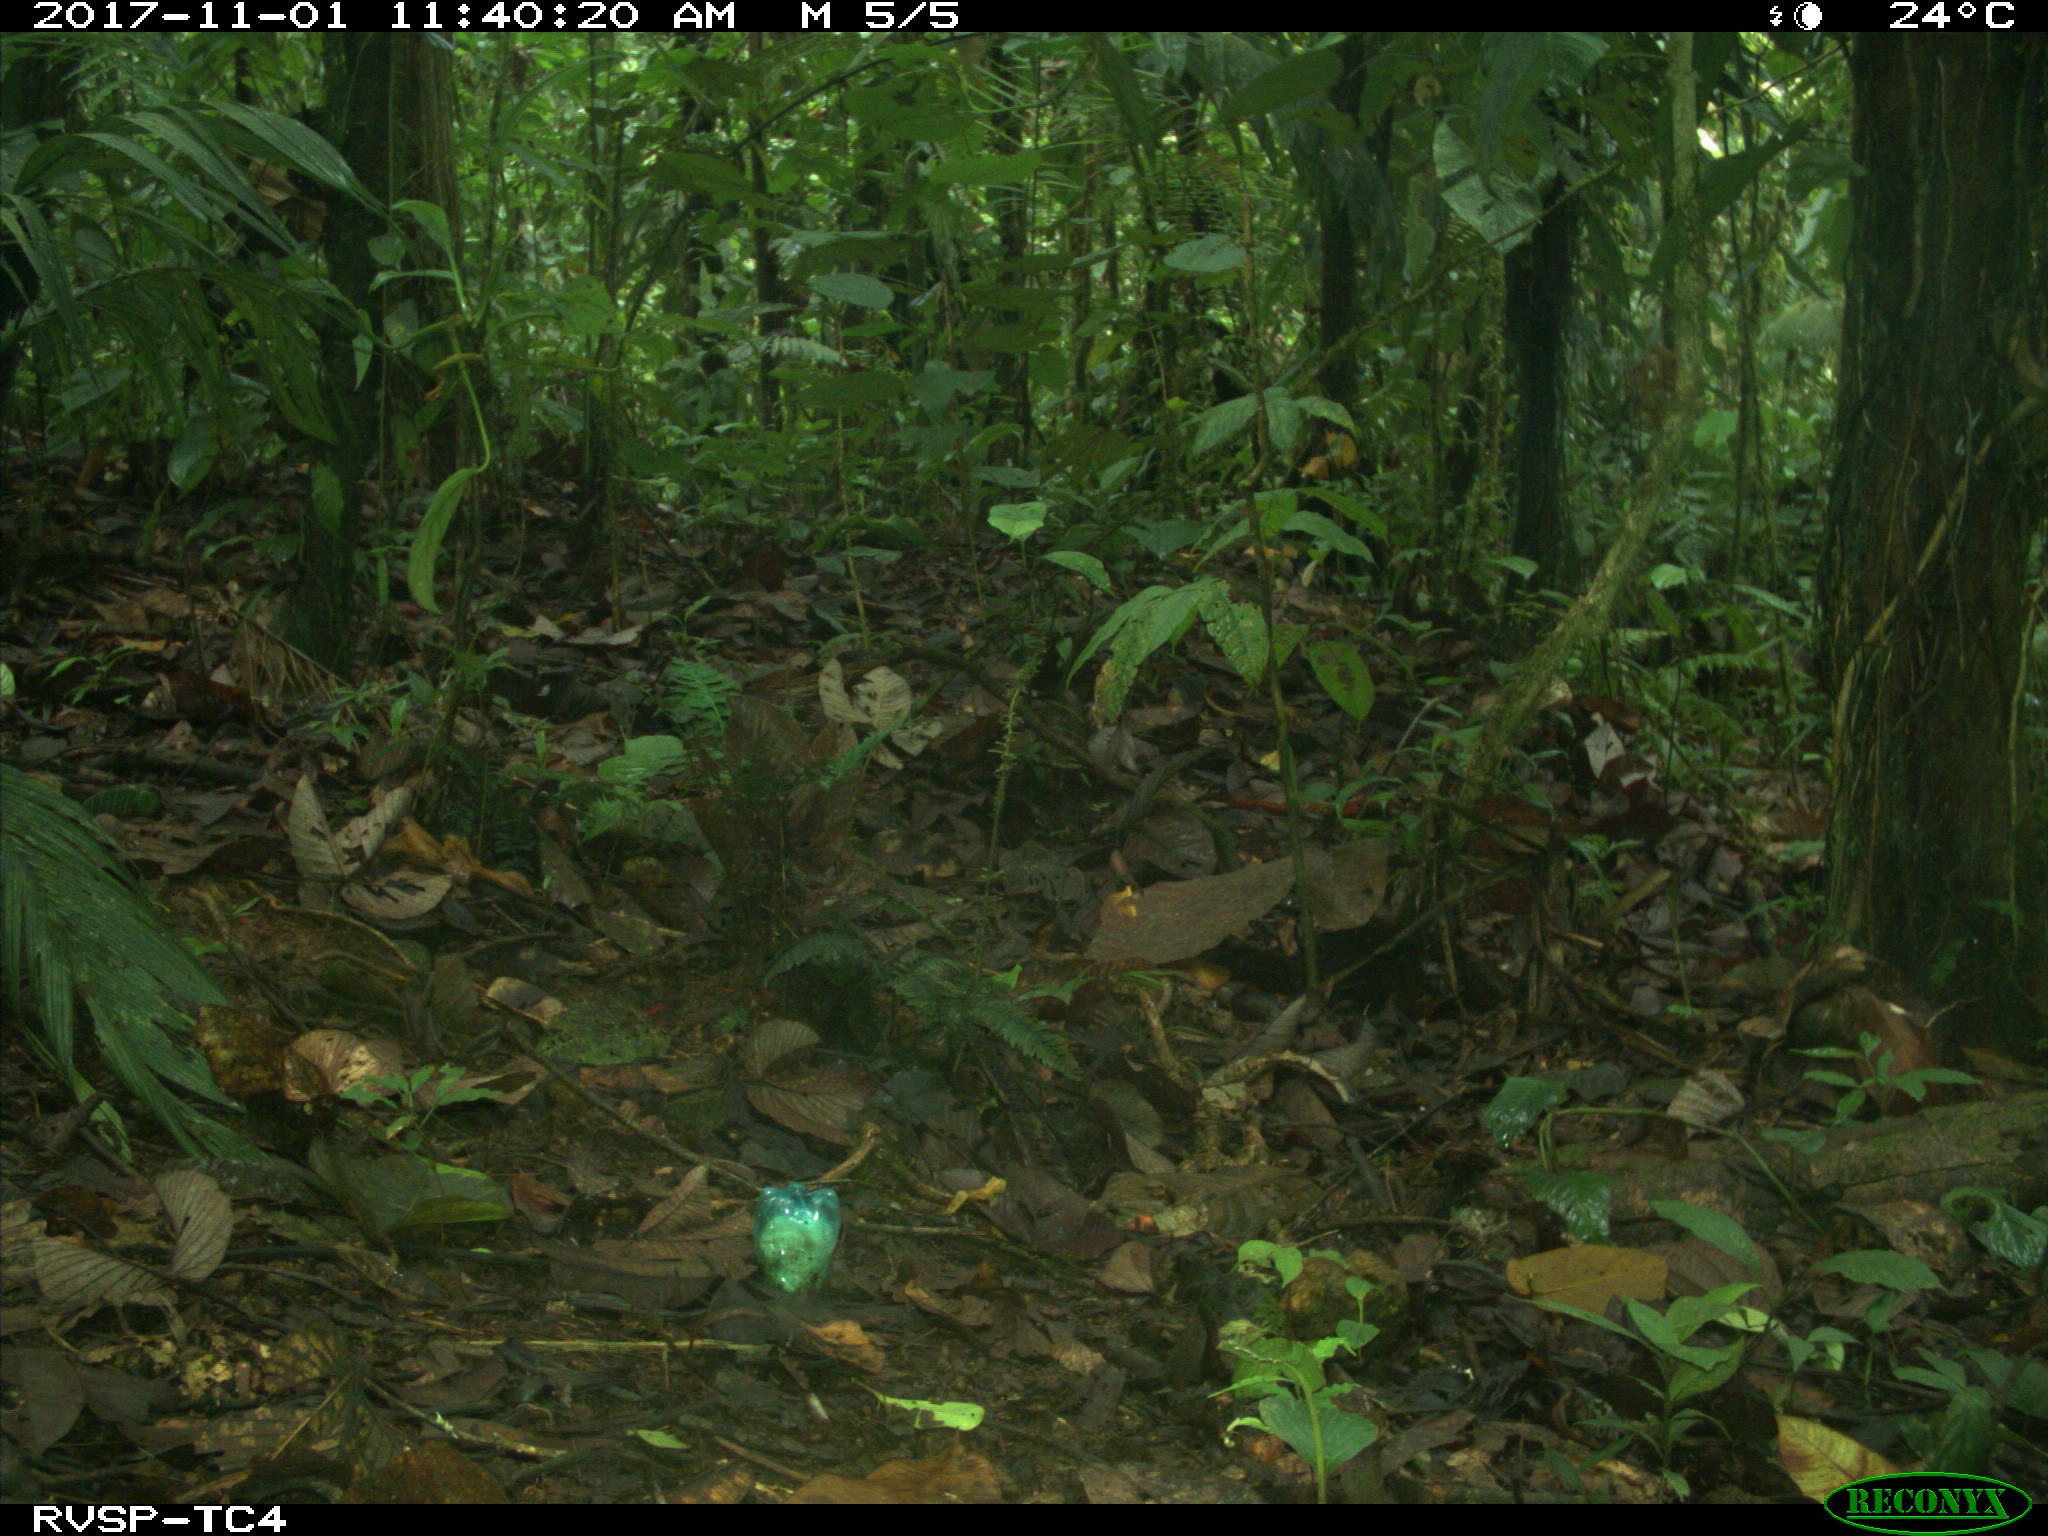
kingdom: Animalia
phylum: Chordata
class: Mammalia
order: Rodentia
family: Dasyproctidae
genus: Dasyprocta
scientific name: Dasyprocta punctata
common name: Central american agouti
